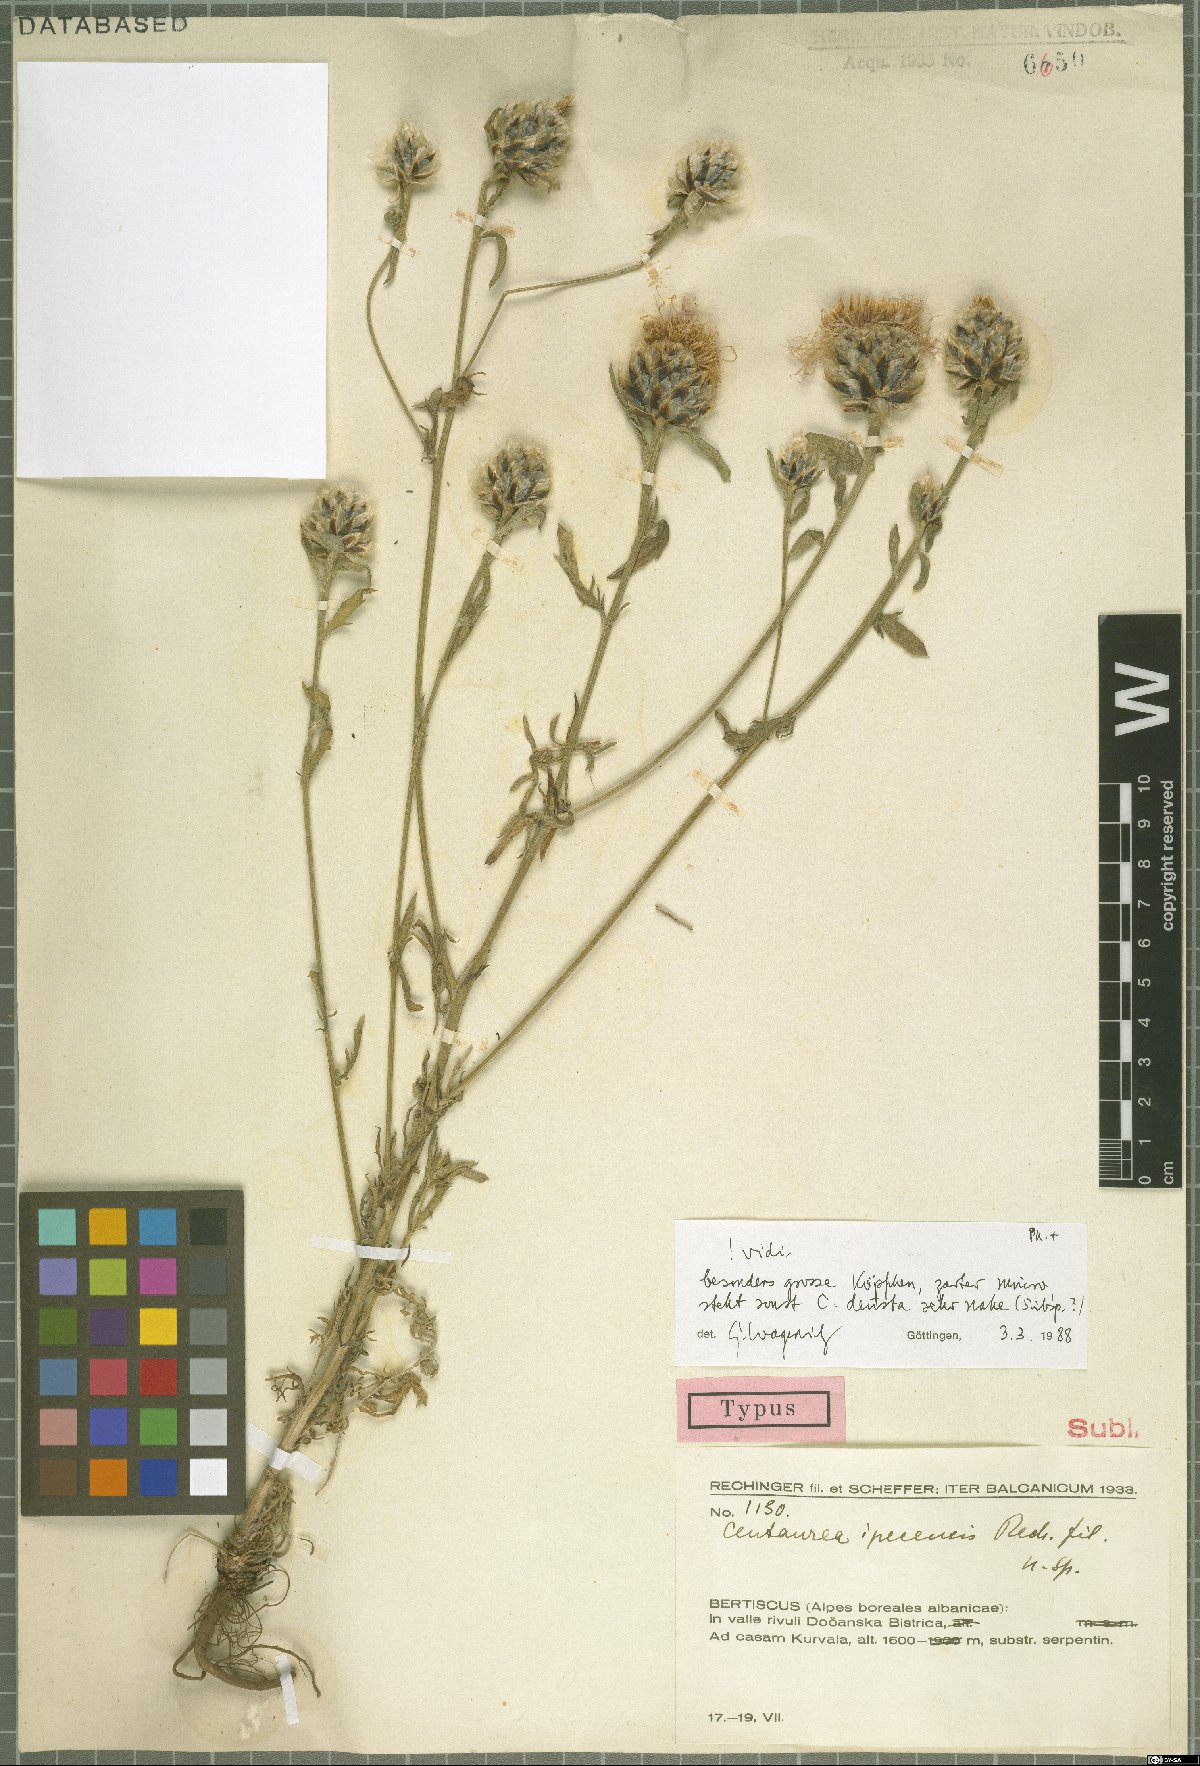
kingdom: Plantae
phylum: Tracheophyta
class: Magnoliopsida
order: Asterales
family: Asteraceae
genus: Centaurea
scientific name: Centaurea ipecensis
